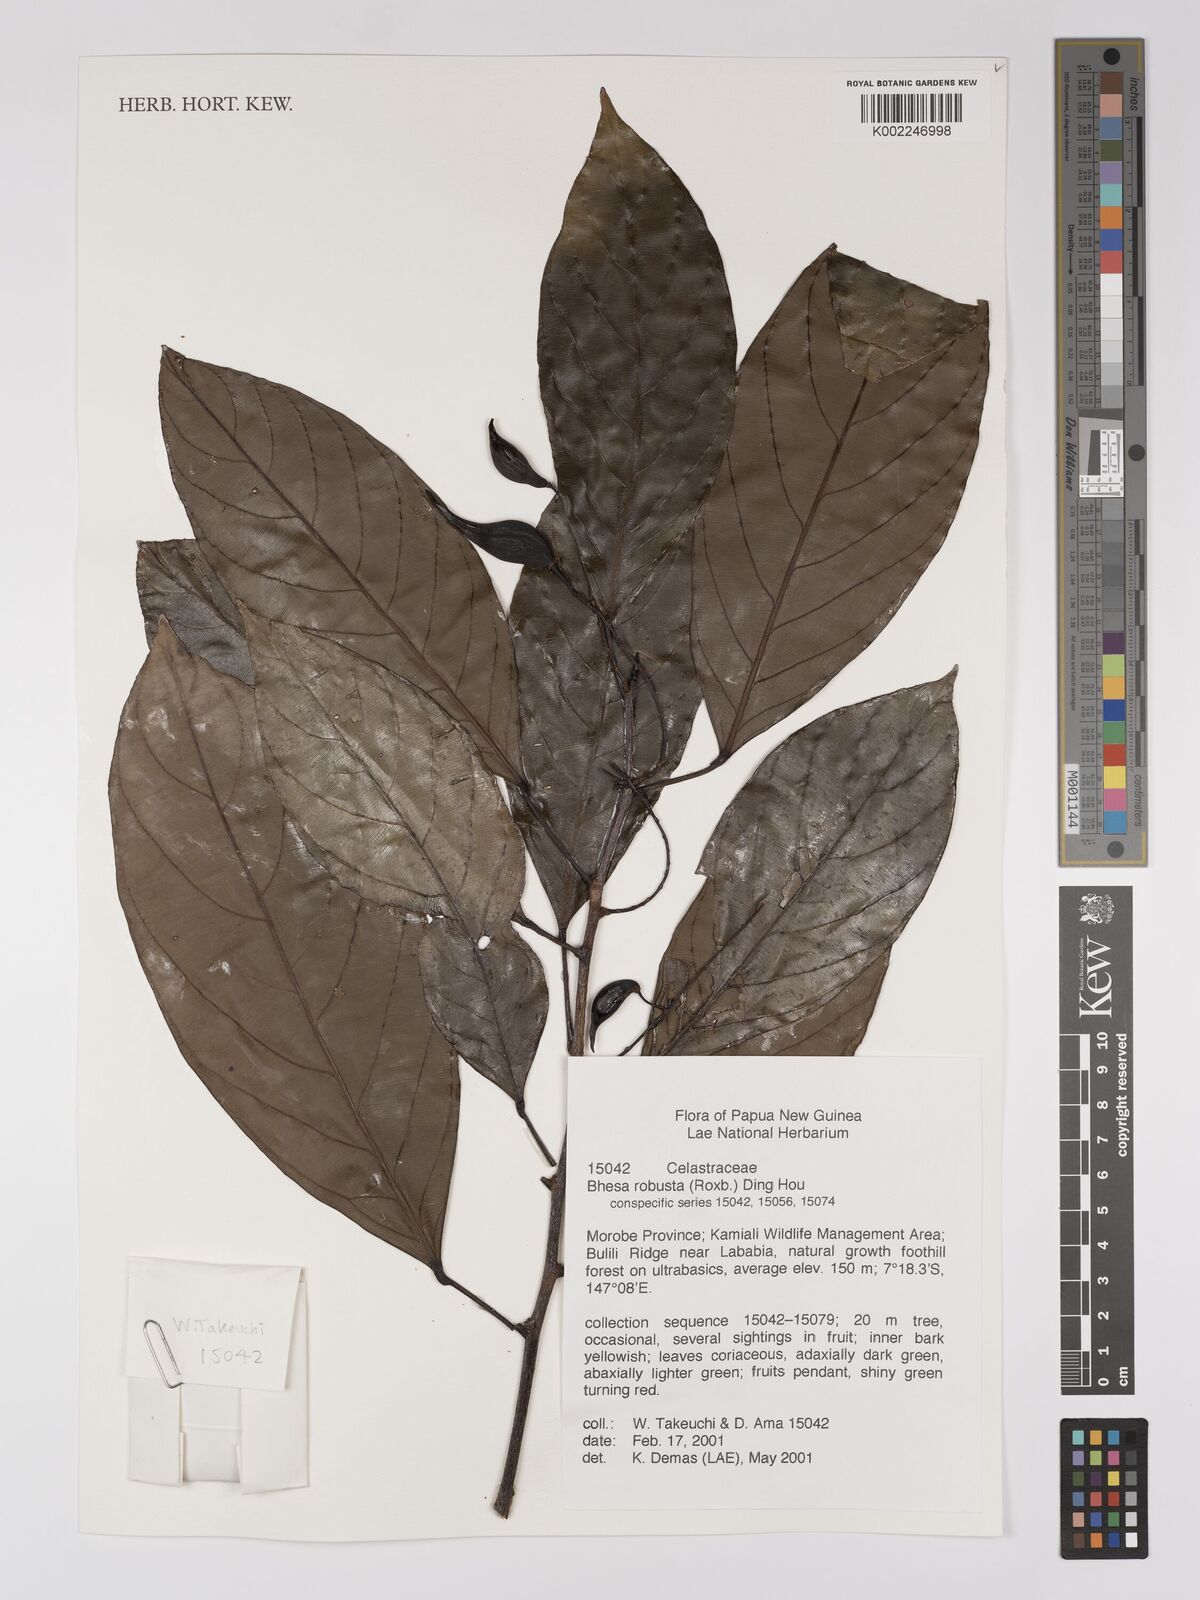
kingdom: Plantae
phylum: Tracheophyta
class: Magnoliopsida
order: Malpighiales
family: Centroplacaceae
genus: Bhesa
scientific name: Bhesa robusta
